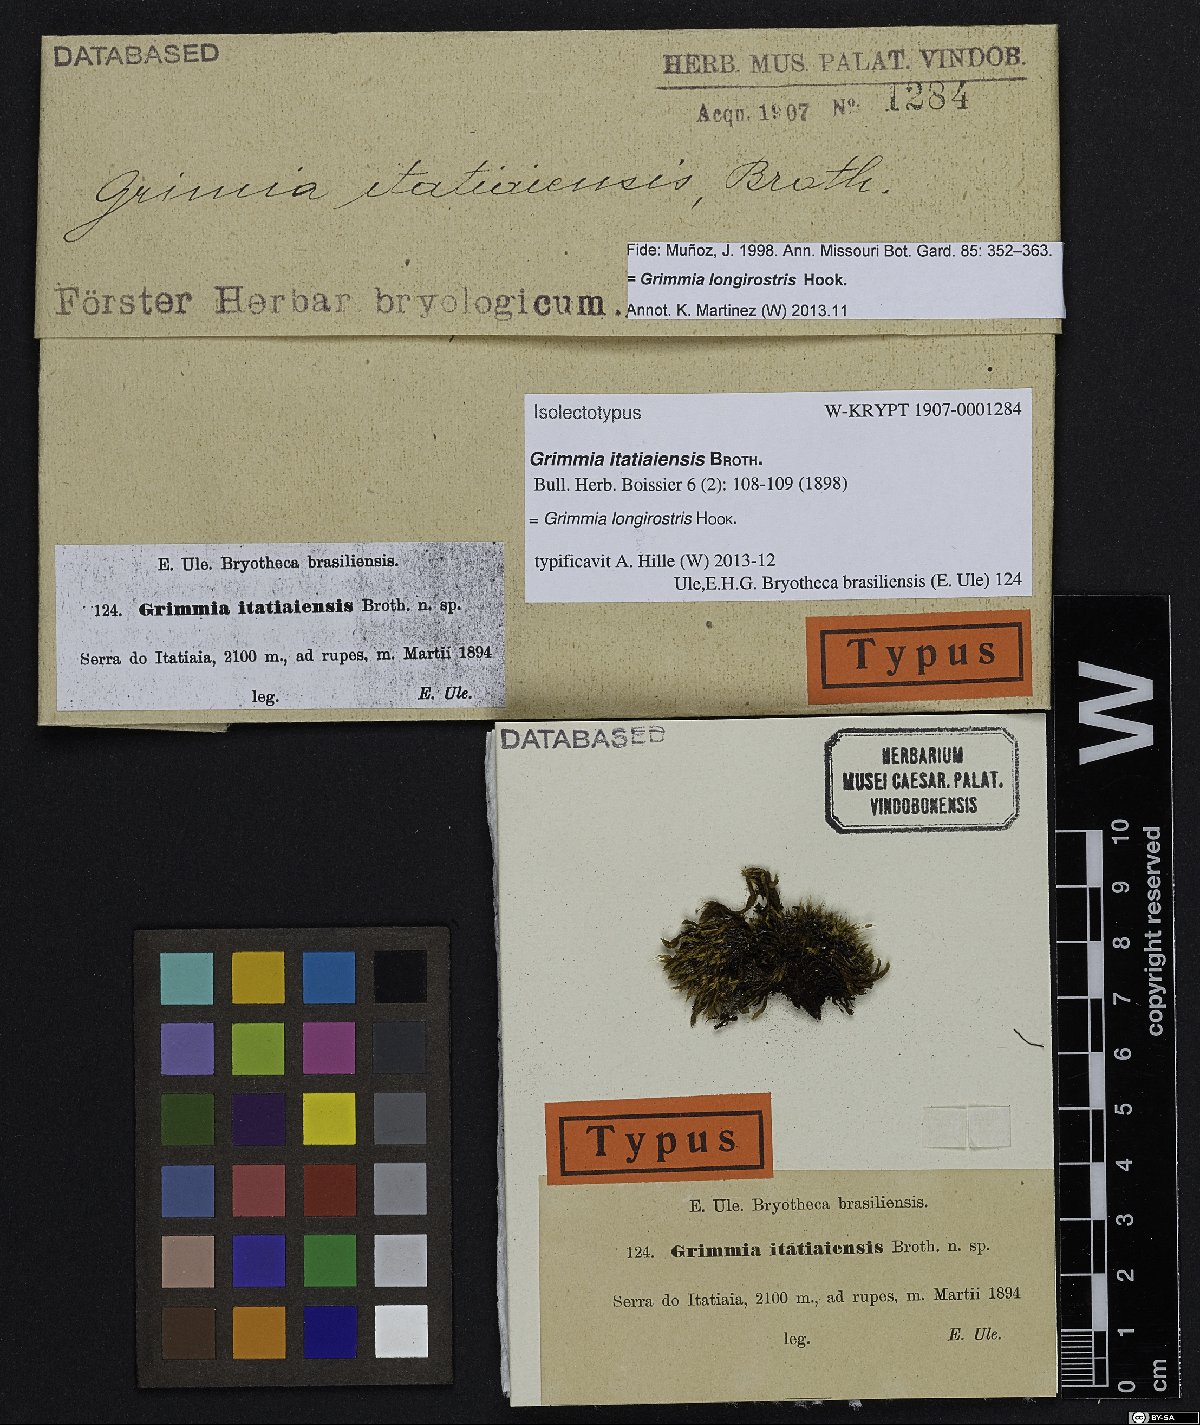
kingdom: Plantae
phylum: Bryophyta
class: Bryopsida
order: Grimmiales
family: Grimmiaceae
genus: Grimmia
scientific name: Grimmia longirostris
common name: Long-beaked grimmia
